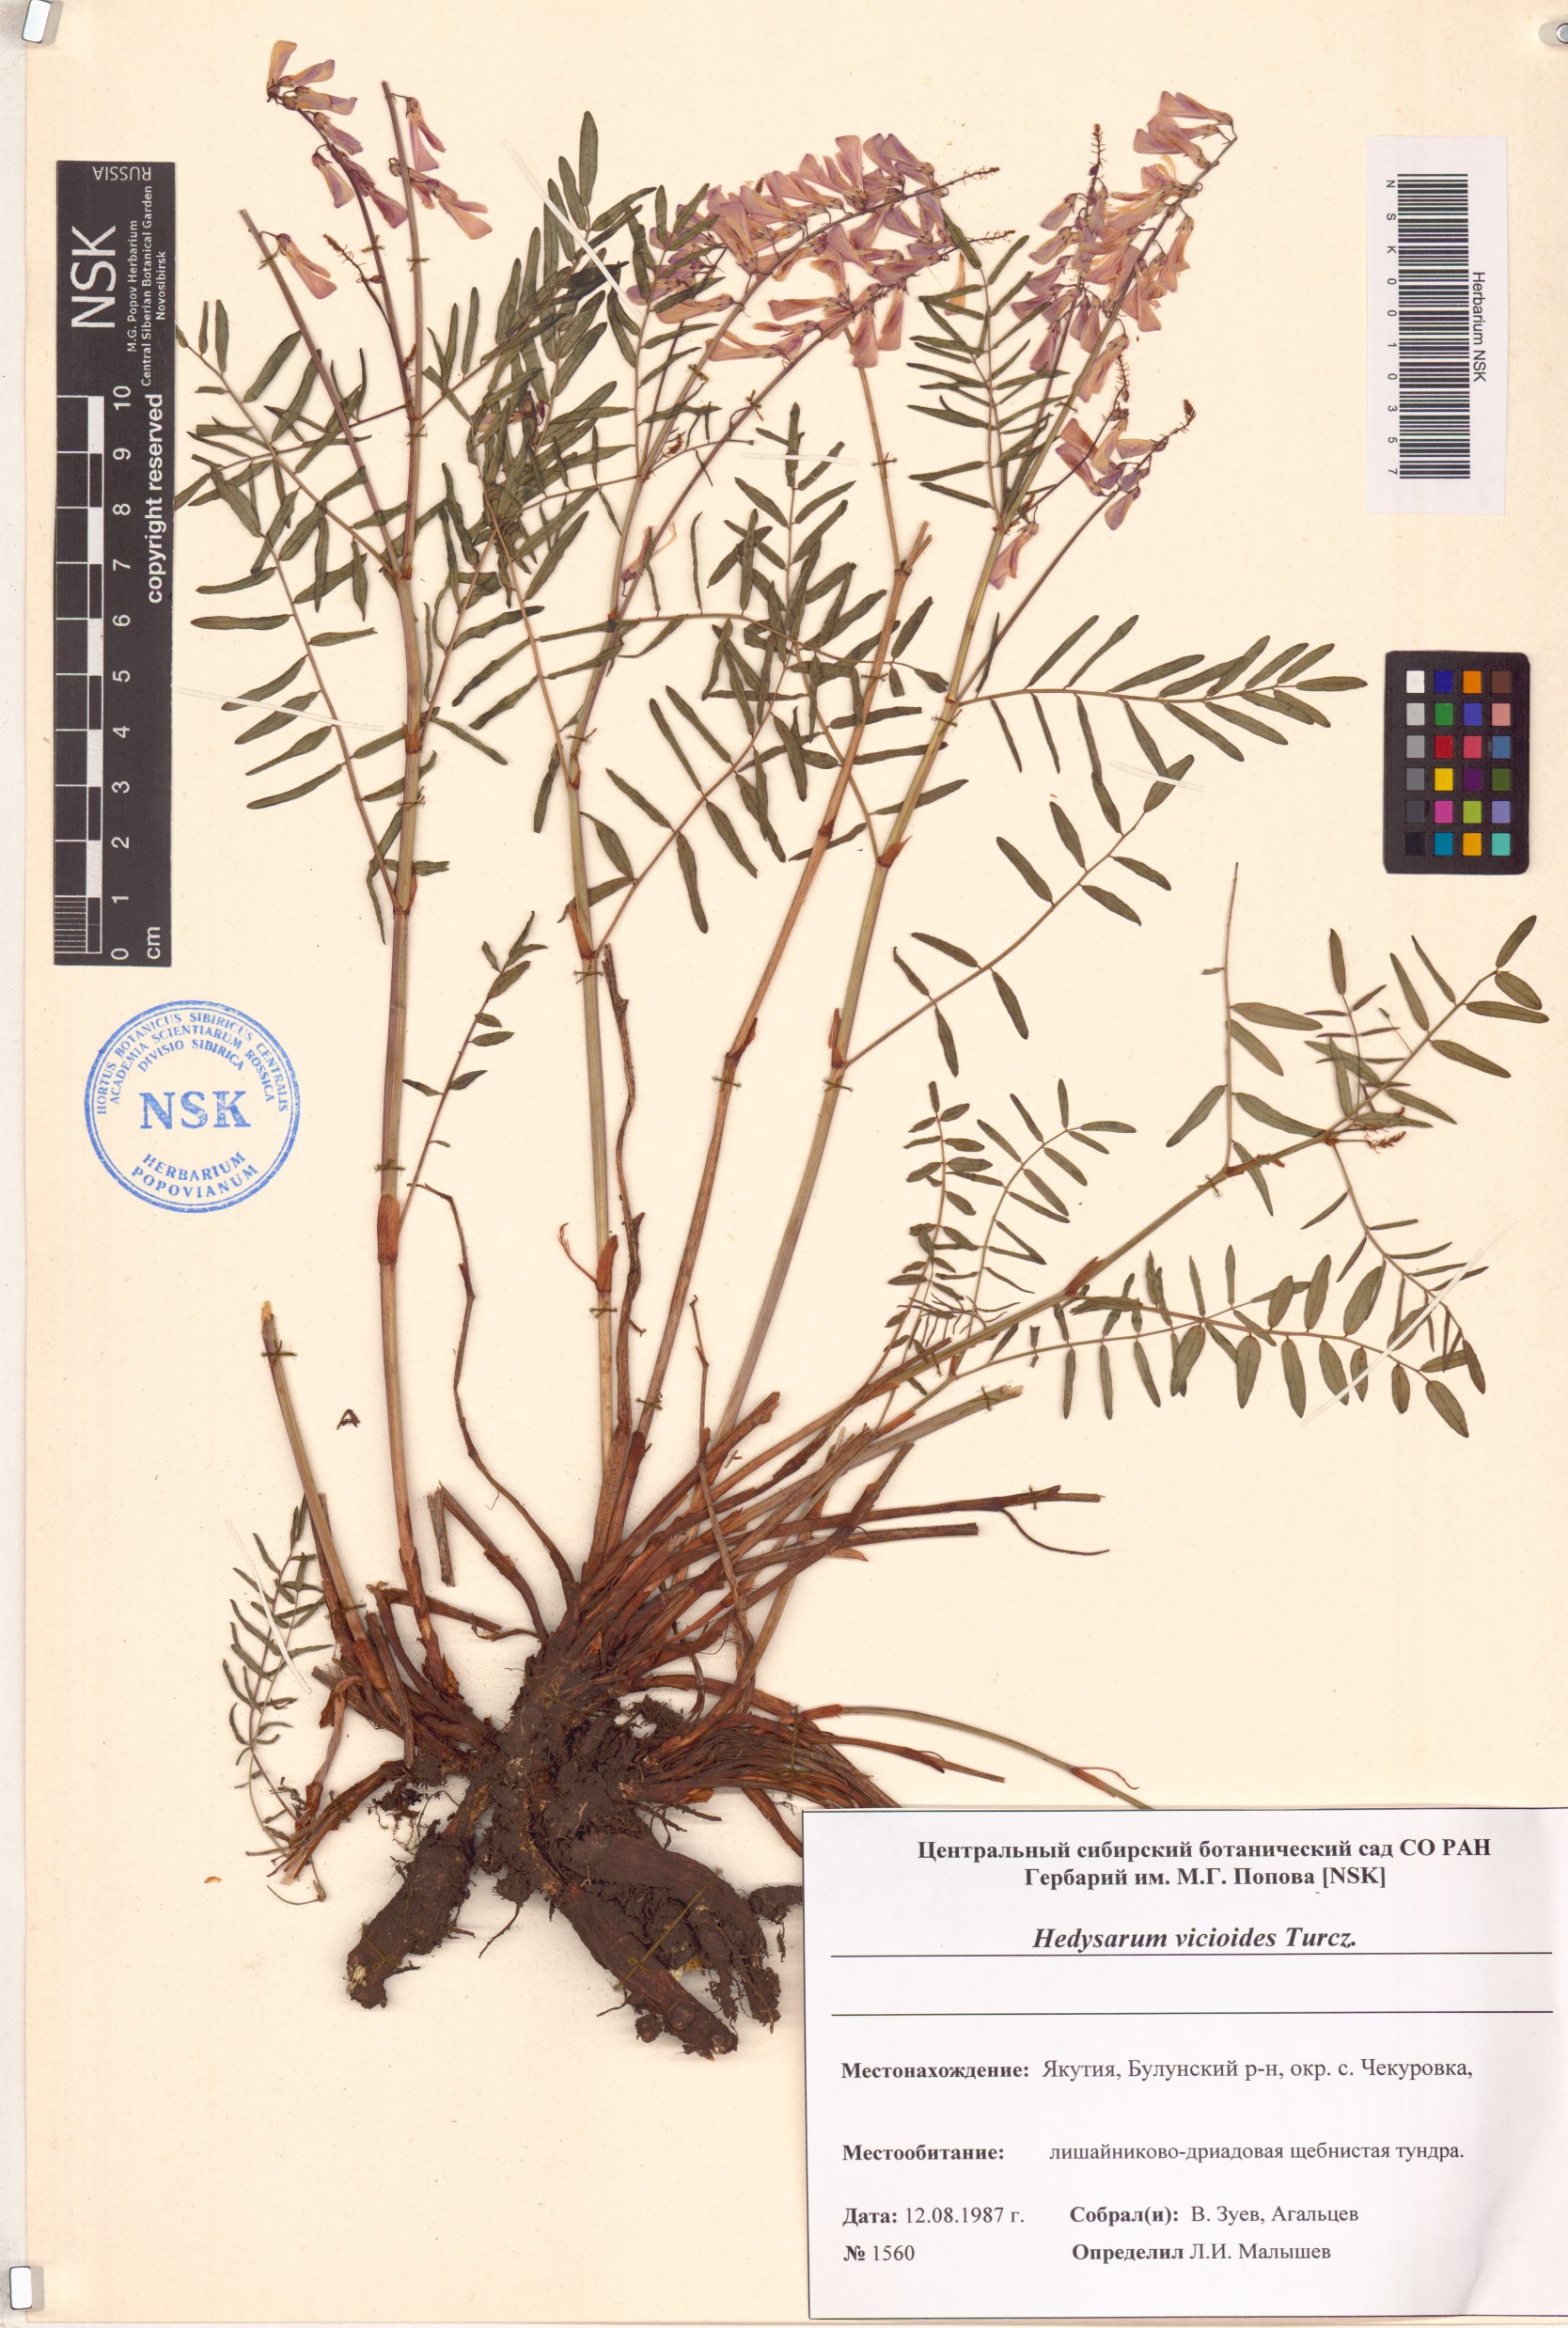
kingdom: Plantae
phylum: Tracheophyta
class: Magnoliopsida
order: Fabales
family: Fabaceae
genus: Hedysarum
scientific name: Hedysarum vicioides
